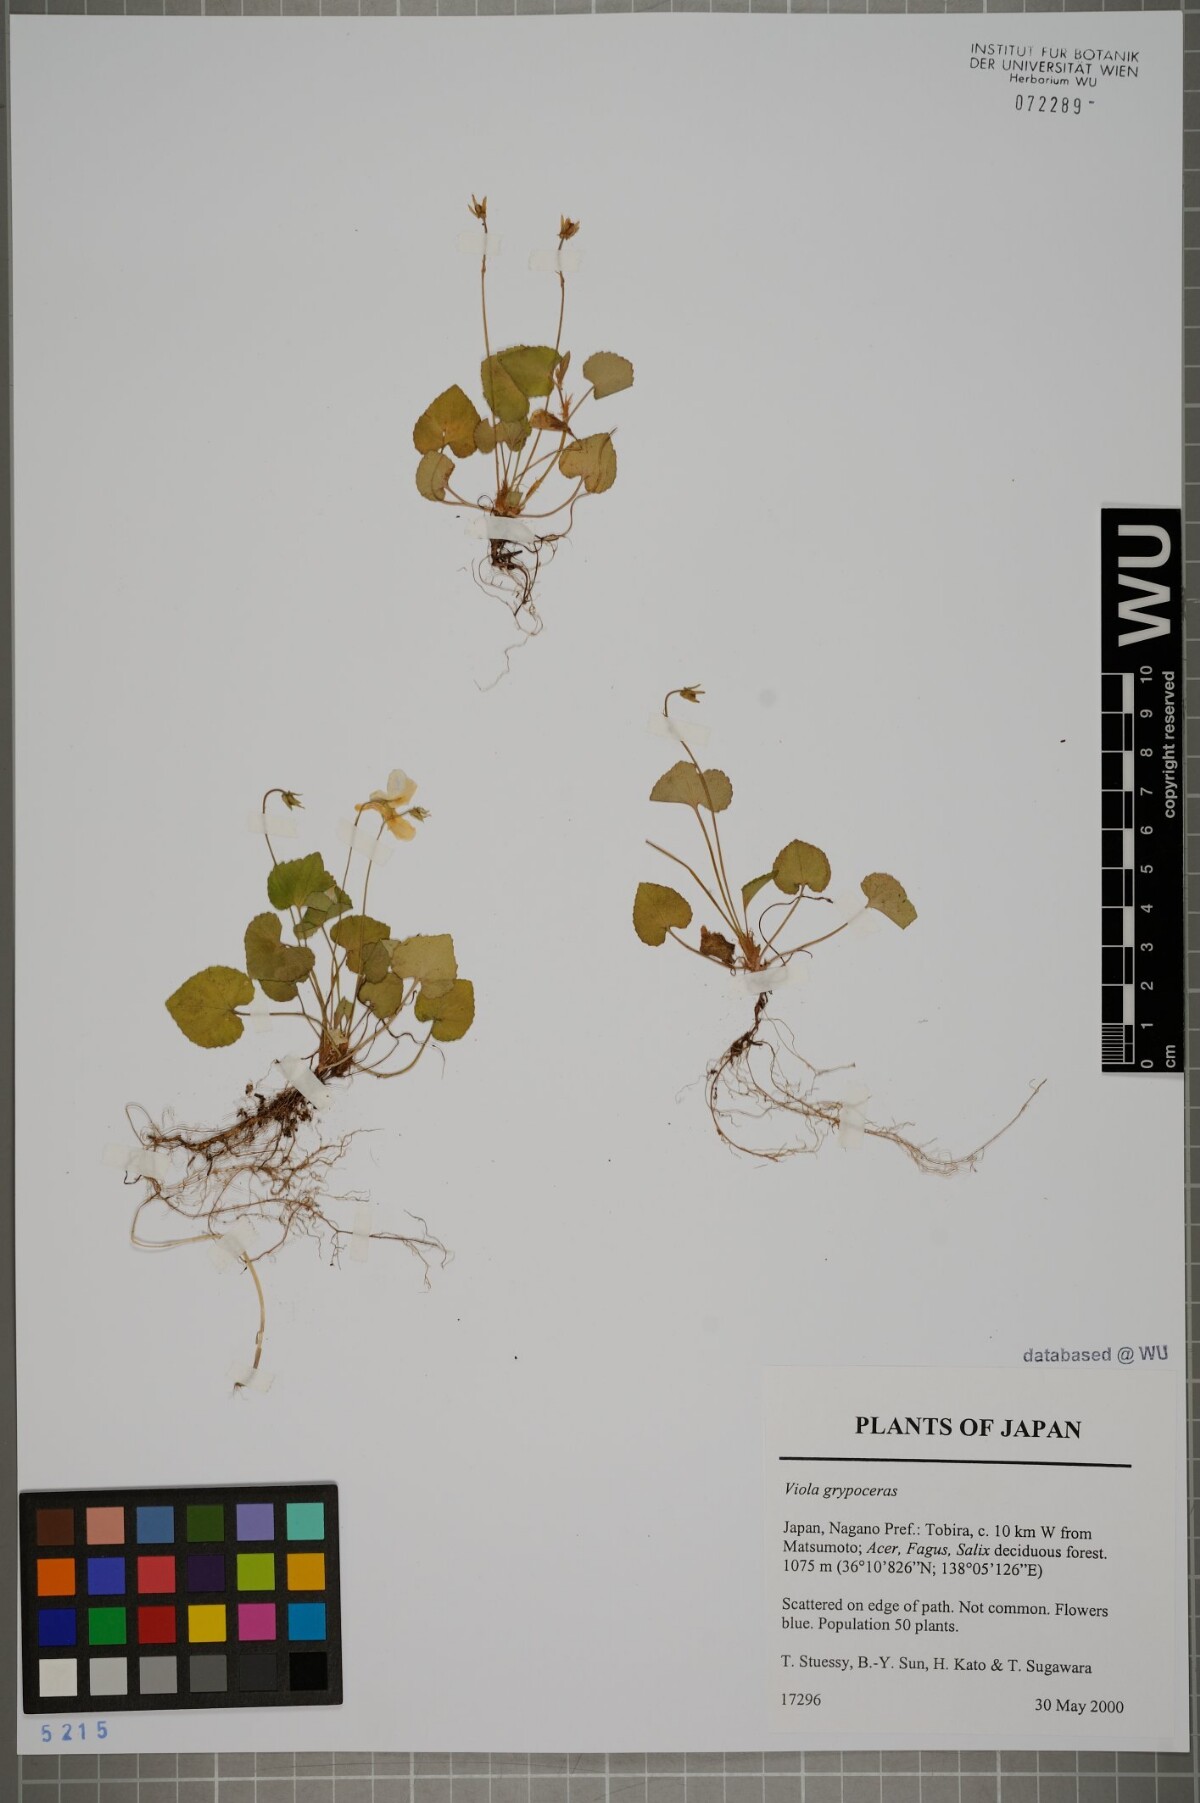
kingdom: Plantae
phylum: Tracheophyta
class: Magnoliopsida
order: Malpighiales
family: Violaceae
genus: Viola
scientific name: Viola grypoceras
